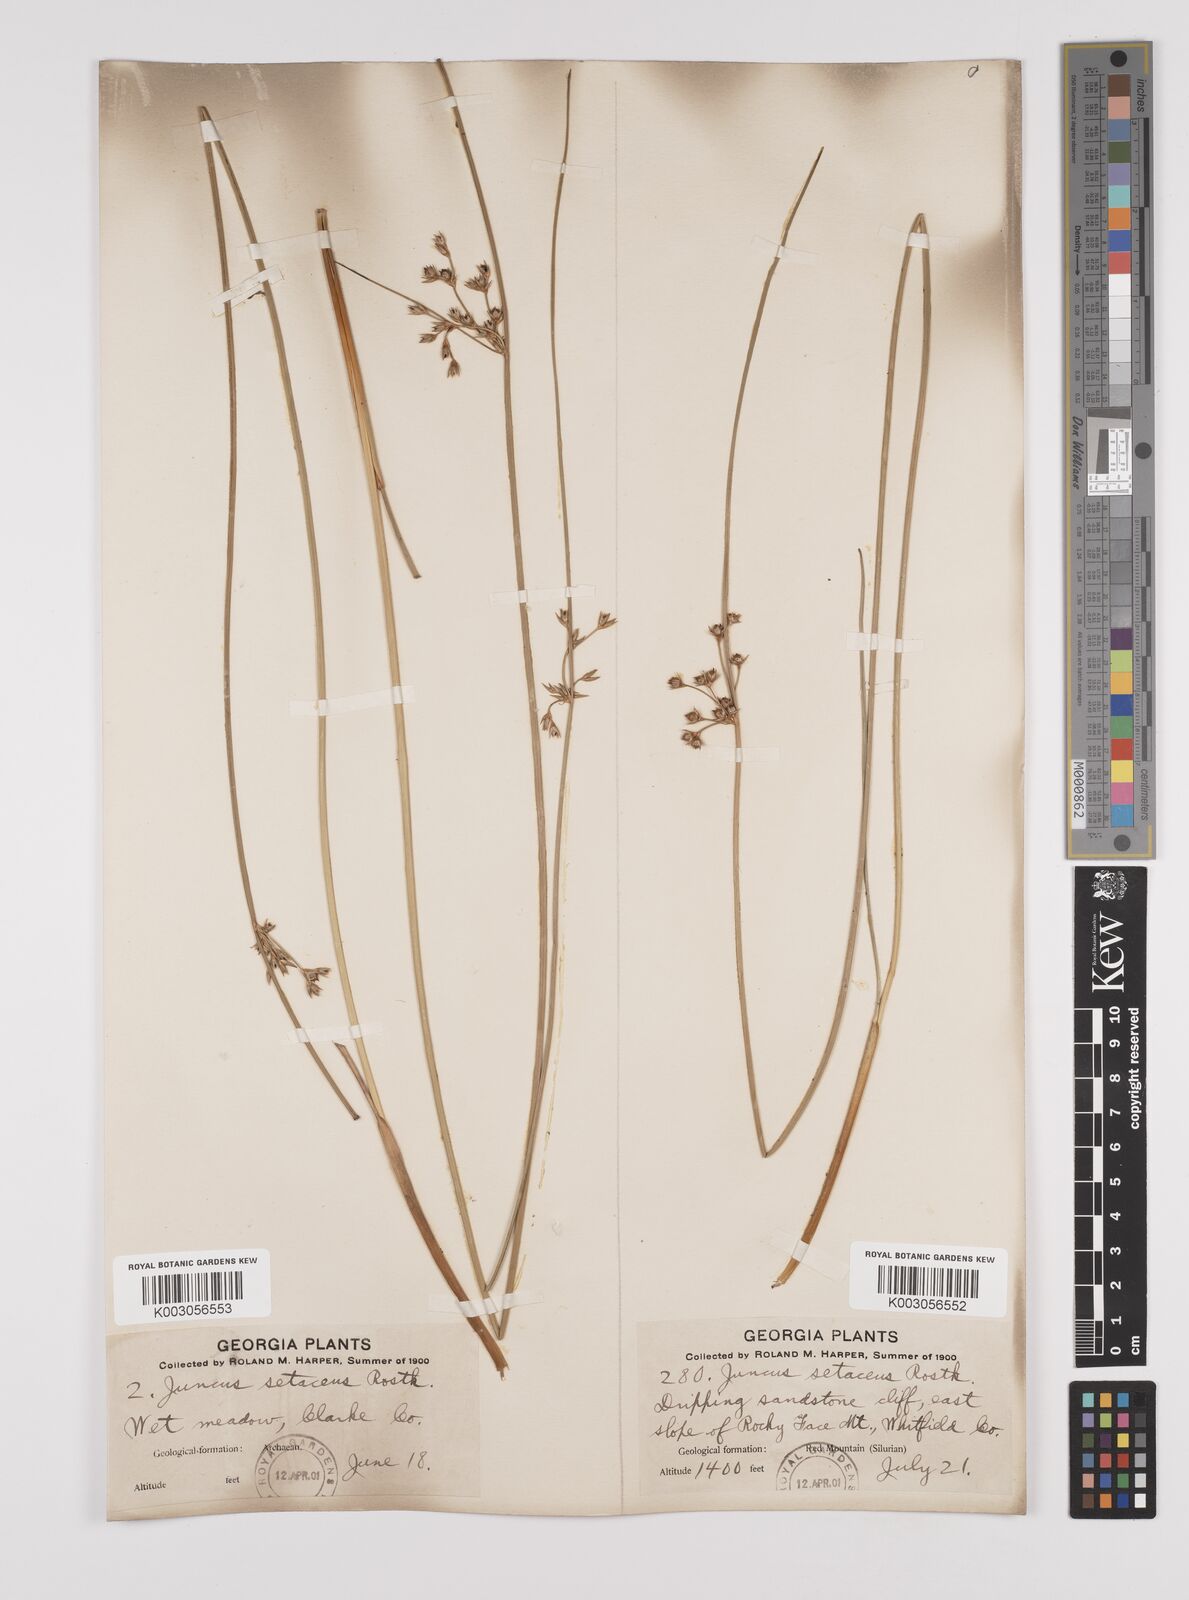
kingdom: Plantae
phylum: Tracheophyta
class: Liliopsida
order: Poales
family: Juncaceae
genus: Juncus
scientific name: Juncus balticus
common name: Baltic rush
